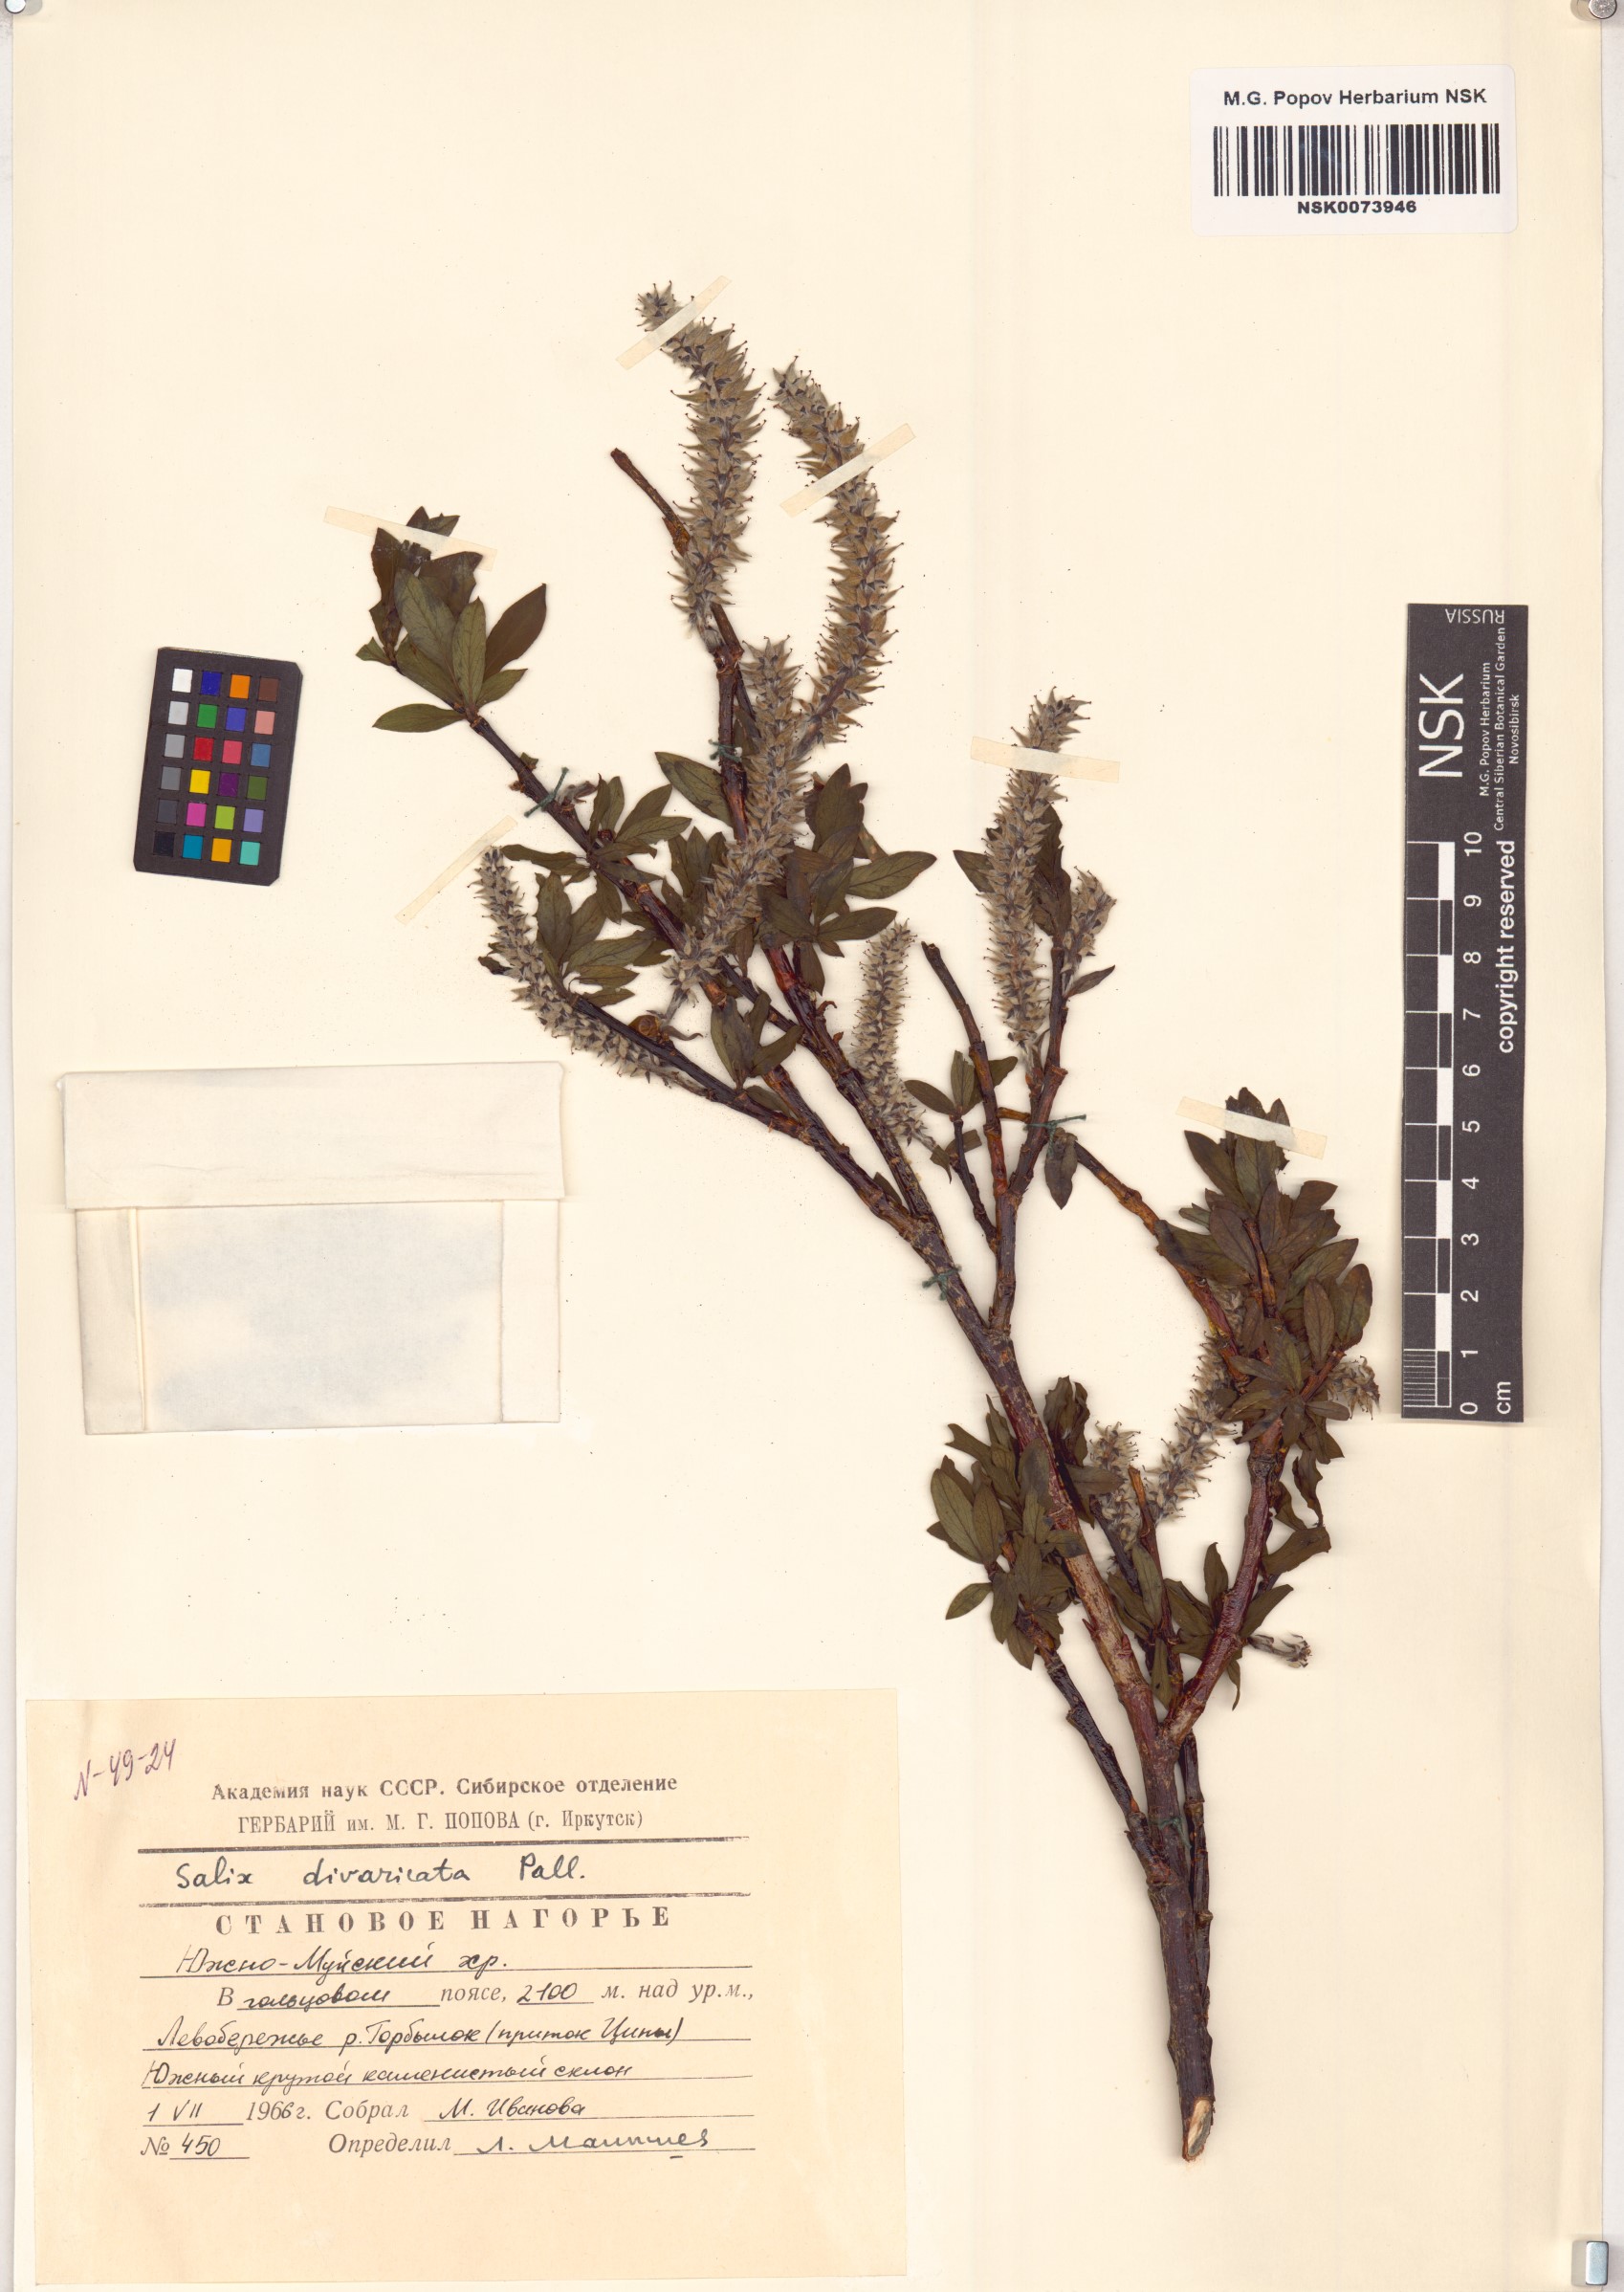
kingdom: Plantae
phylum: Tracheophyta
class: Magnoliopsida
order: Malpighiales
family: Salicaceae
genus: Salix
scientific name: Salix divaricata
